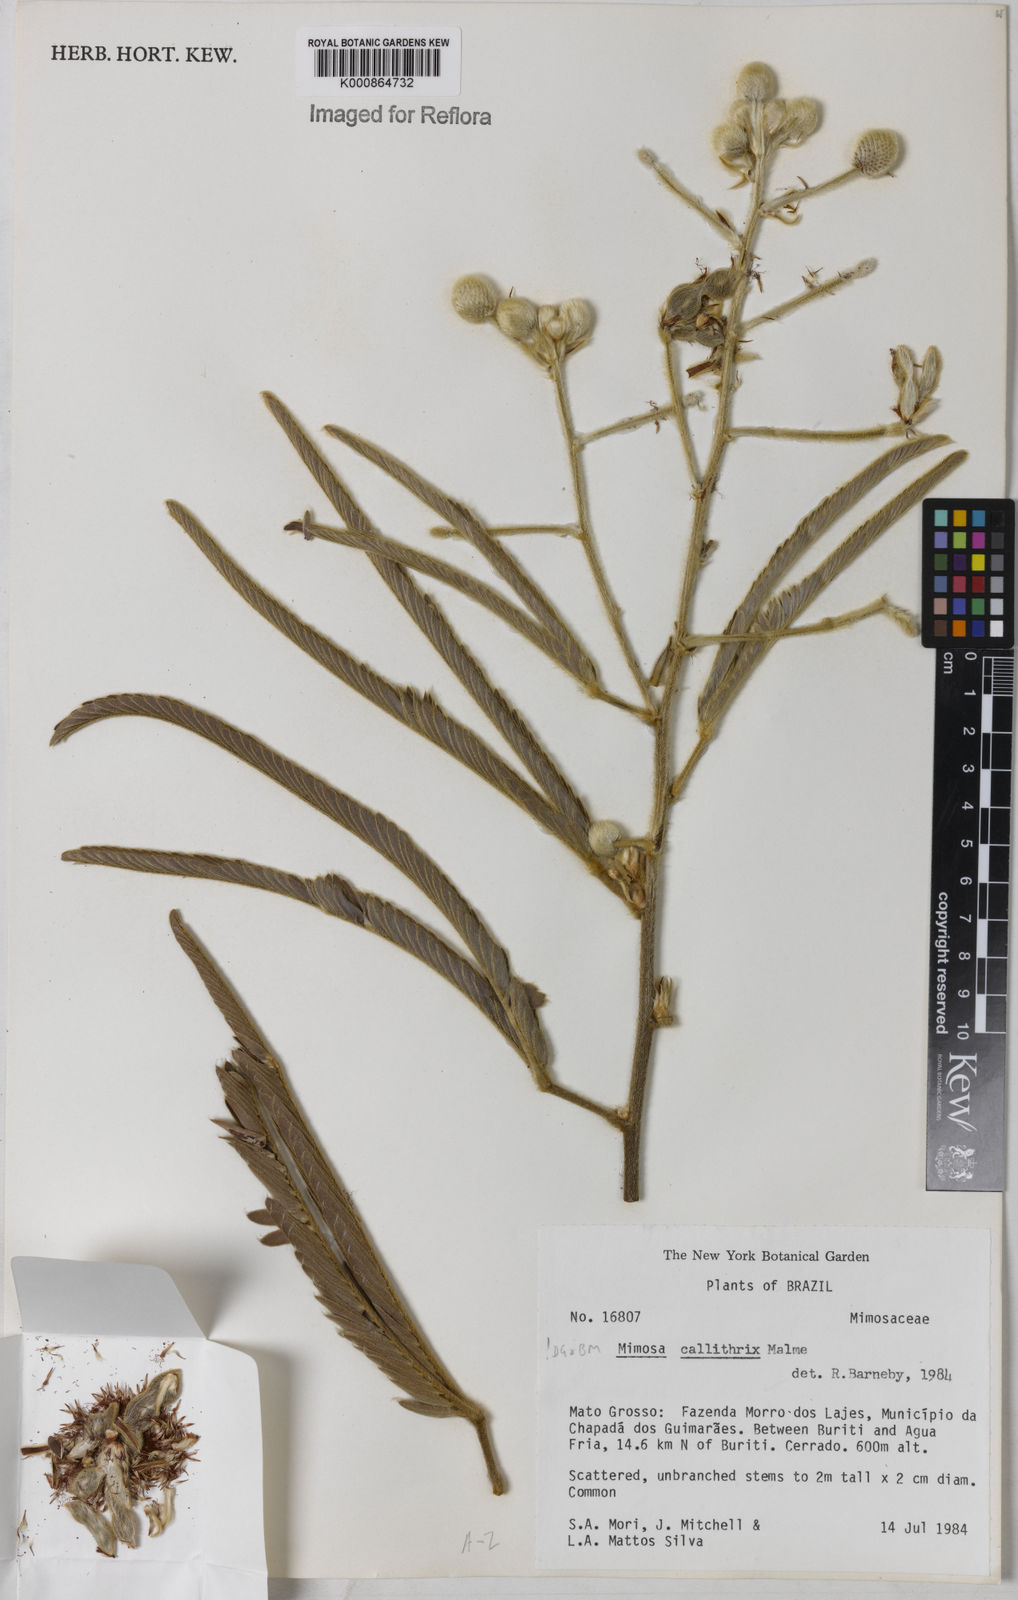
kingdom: Plantae
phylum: Tracheophyta
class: Magnoliopsida
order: Fabales
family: Fabaceae
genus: Mimosa
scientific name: Mimosa callithrix
